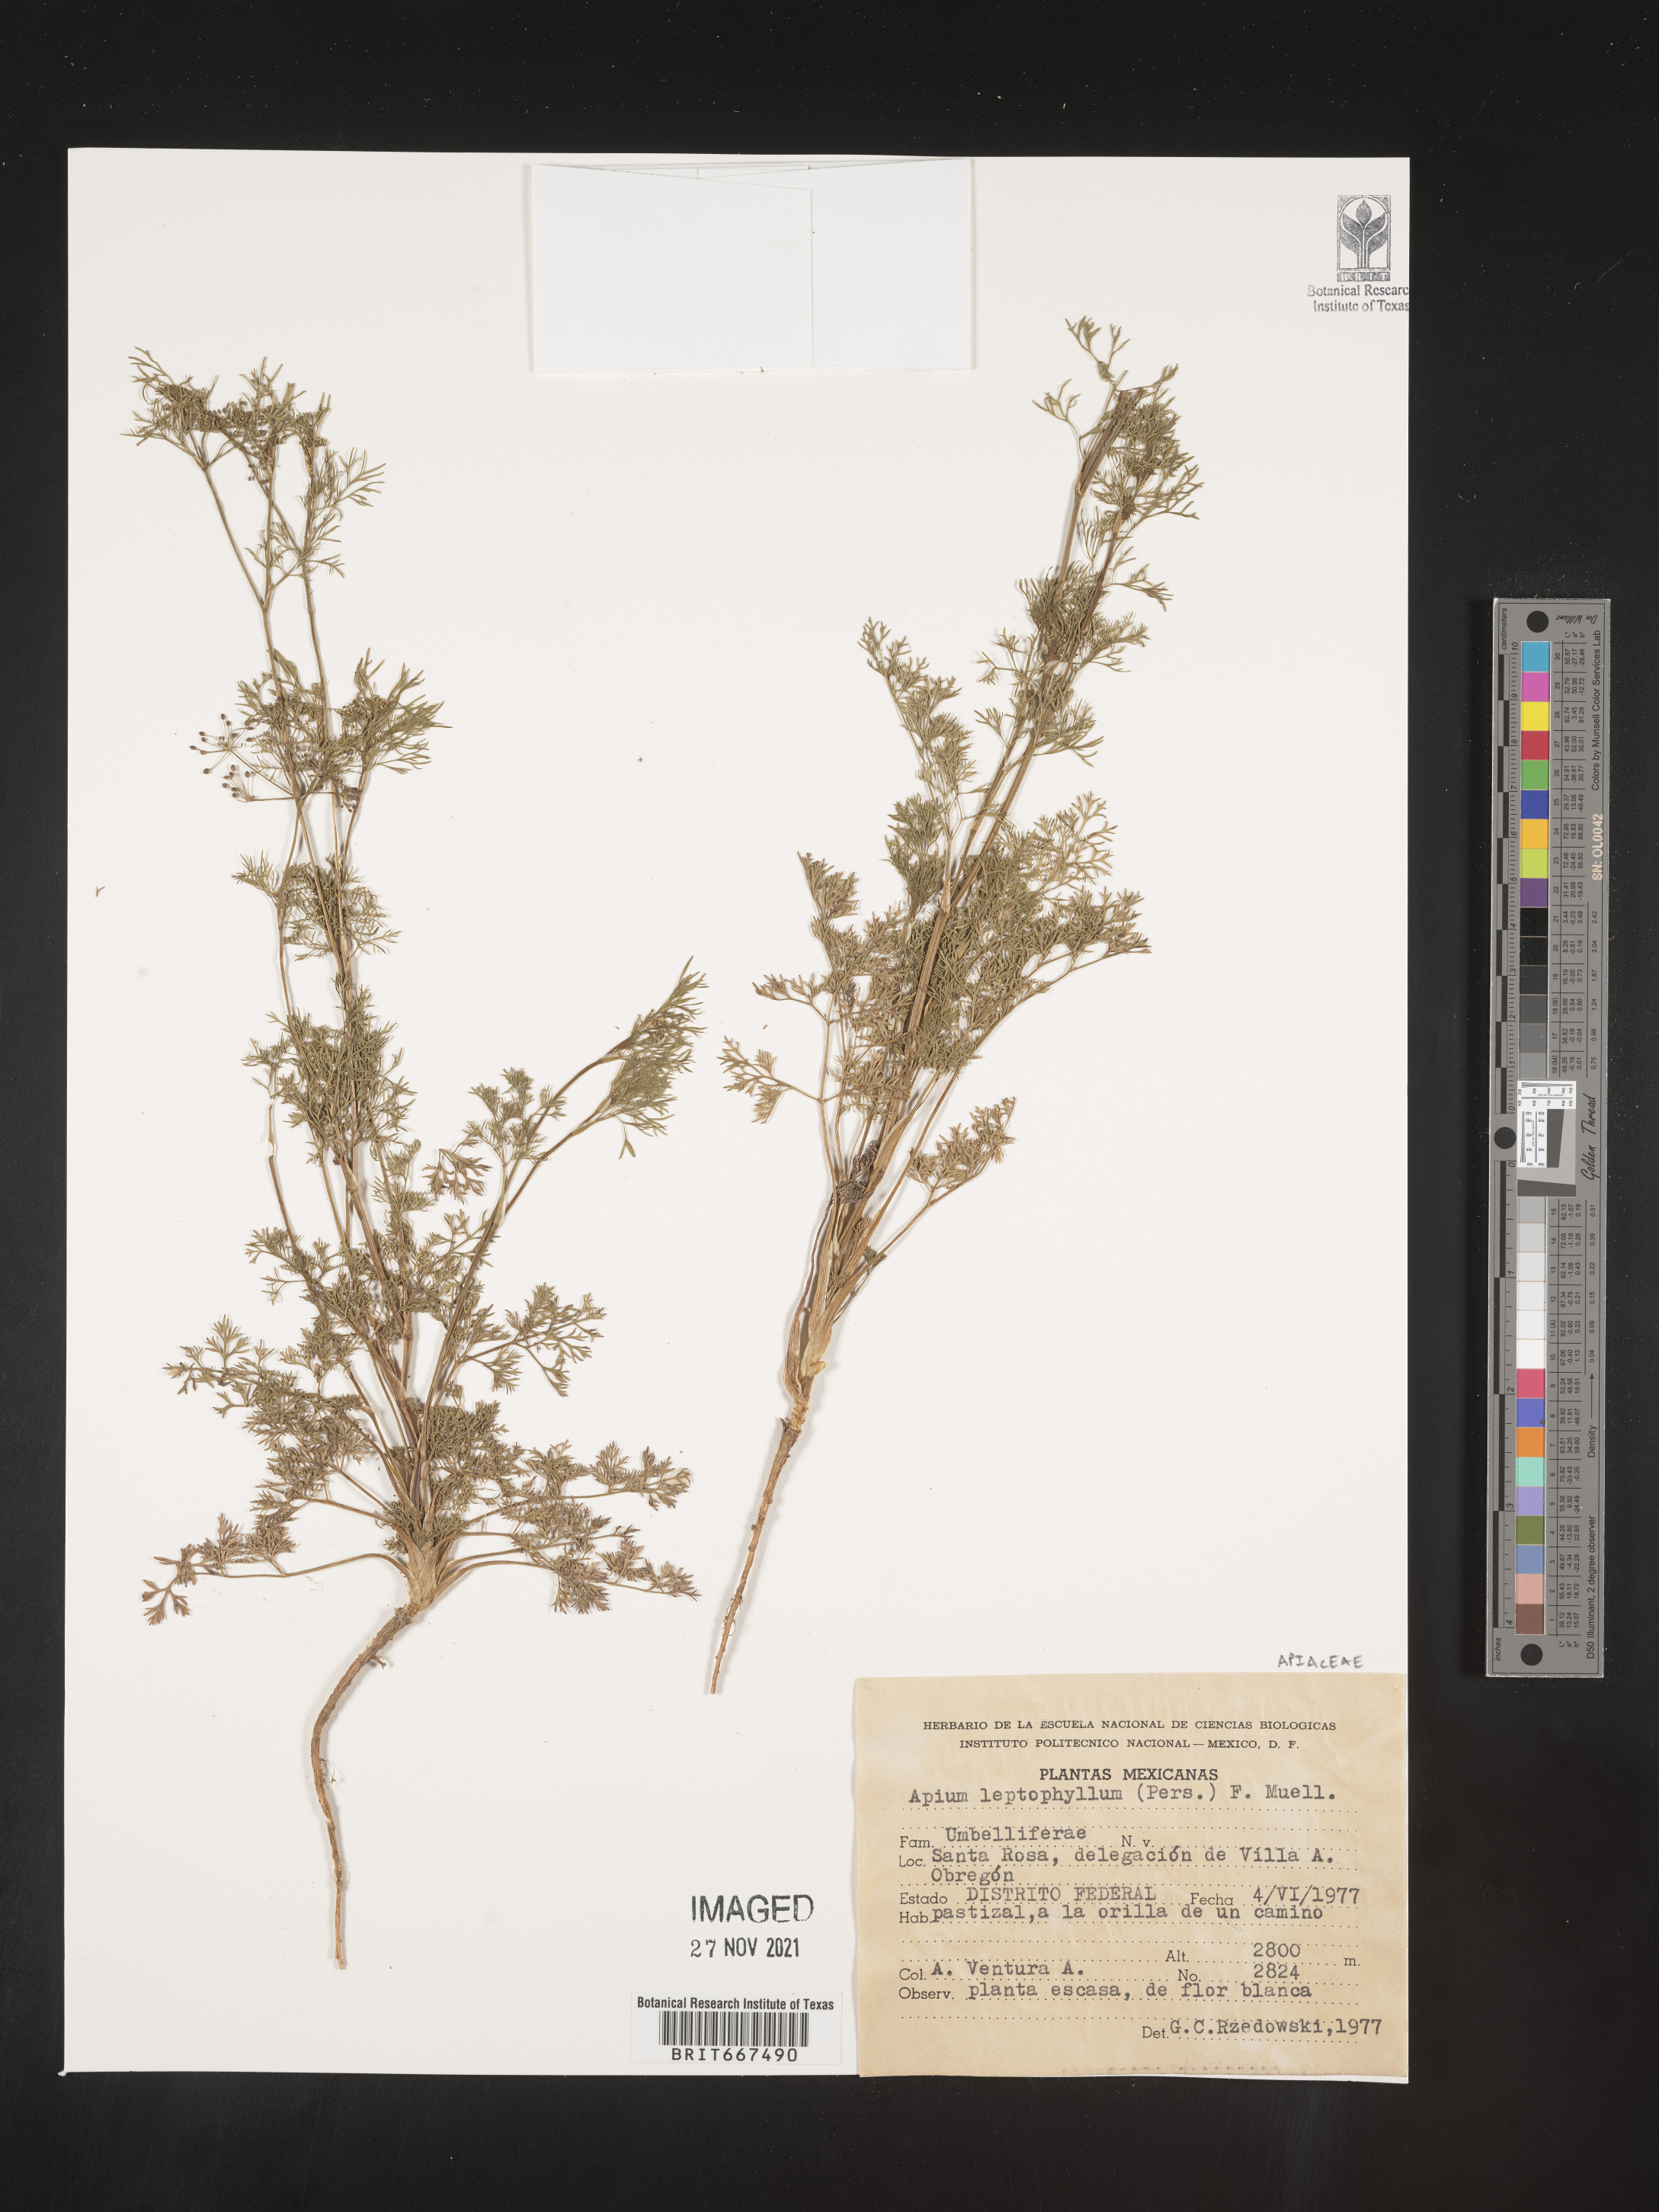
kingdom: Plantae
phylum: Tracheophyta
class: Magnoliopsida
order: Apiales
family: Apiaceae
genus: Apium
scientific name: Apium
